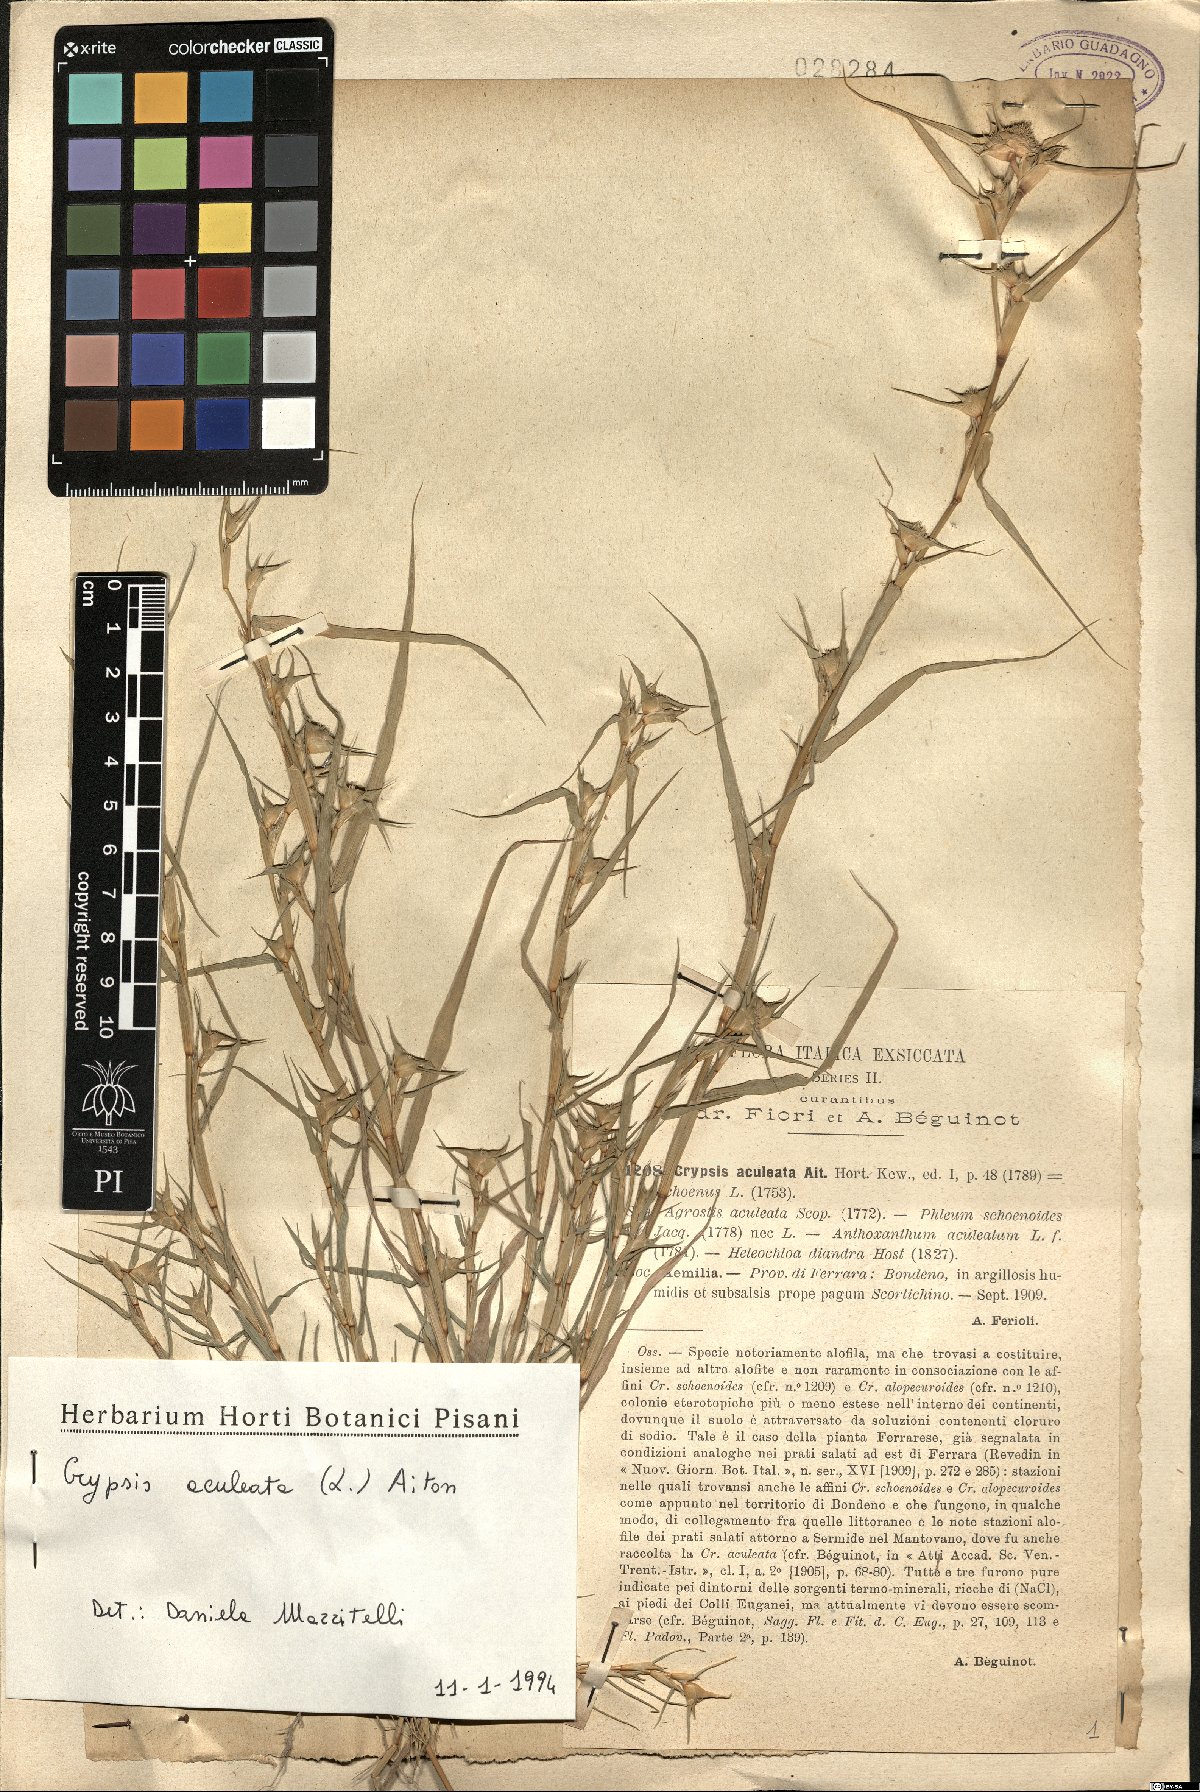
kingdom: Plantae
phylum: Tracheophyta
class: Liliopsida
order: Poales
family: Poaceae
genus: Sporobolus
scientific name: Sporobolus aculeatus
